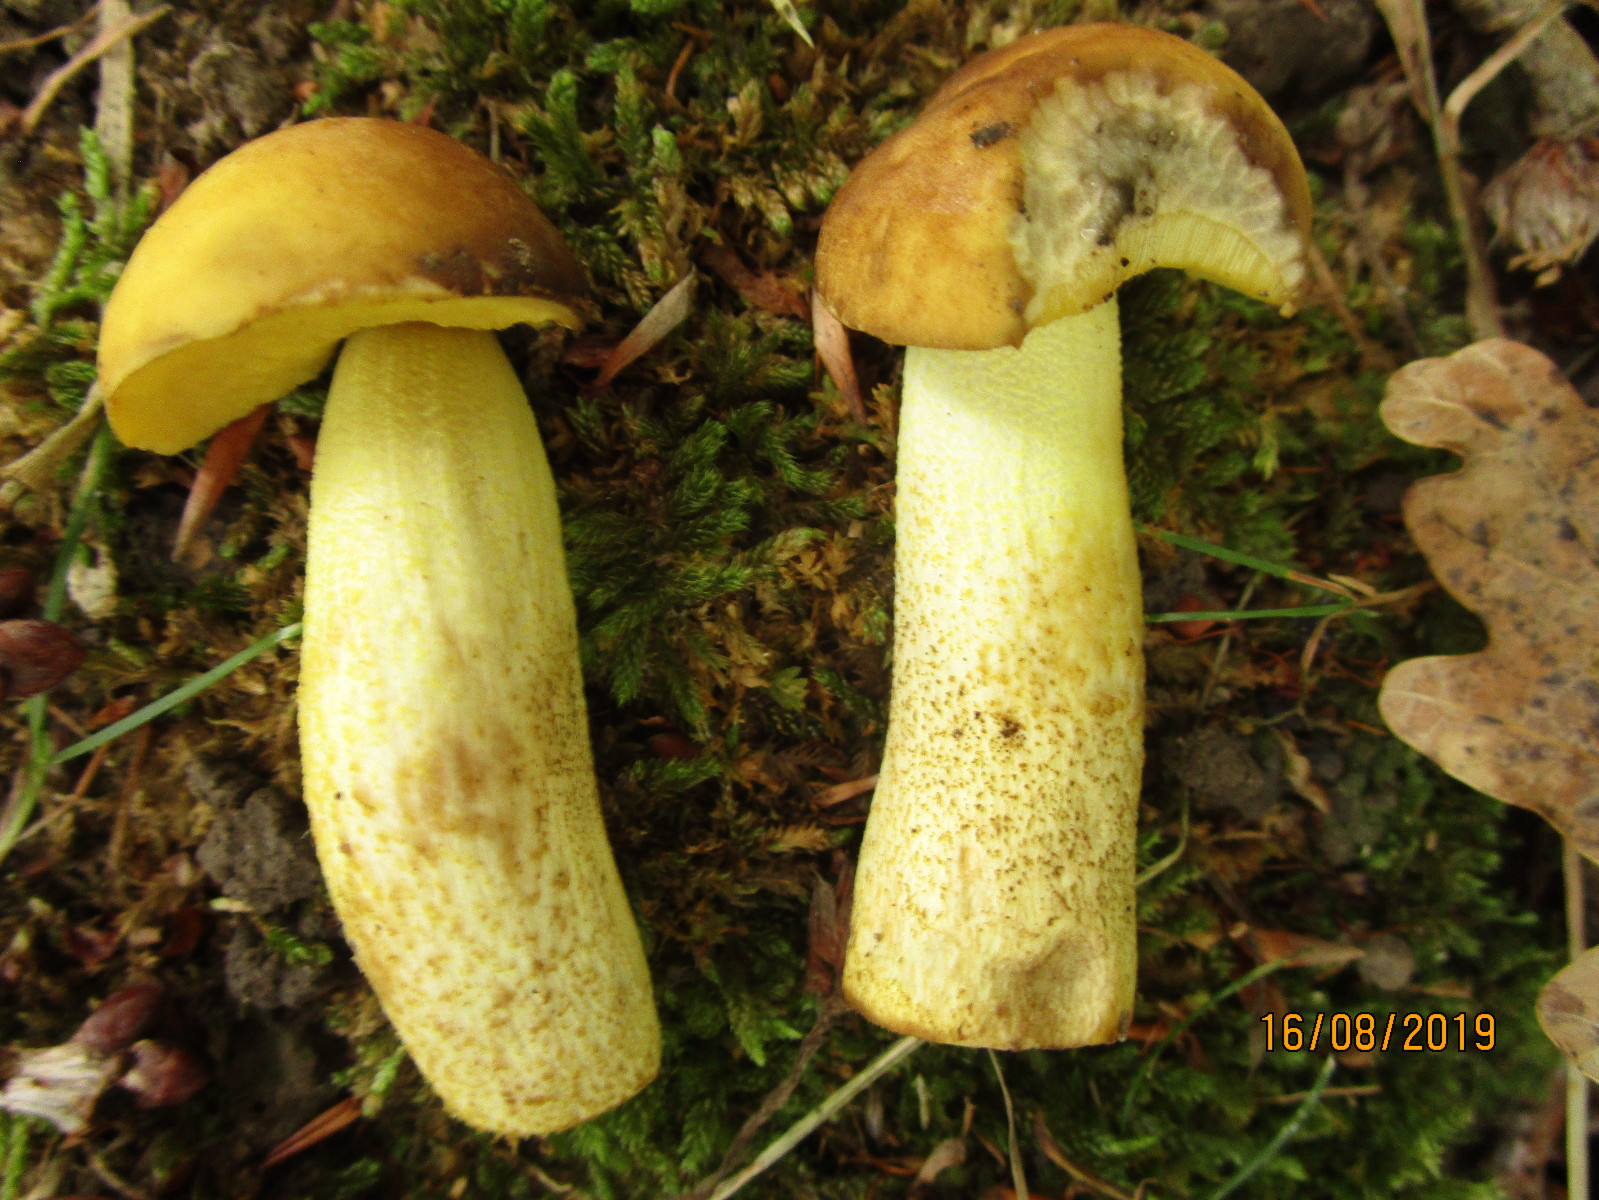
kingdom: Fungi
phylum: Basidiomycota
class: Agaricomycetes
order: Boletales
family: Boletaceae
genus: Leccinellum
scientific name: Leccinellum crocipodium
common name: gul skælrørhat
